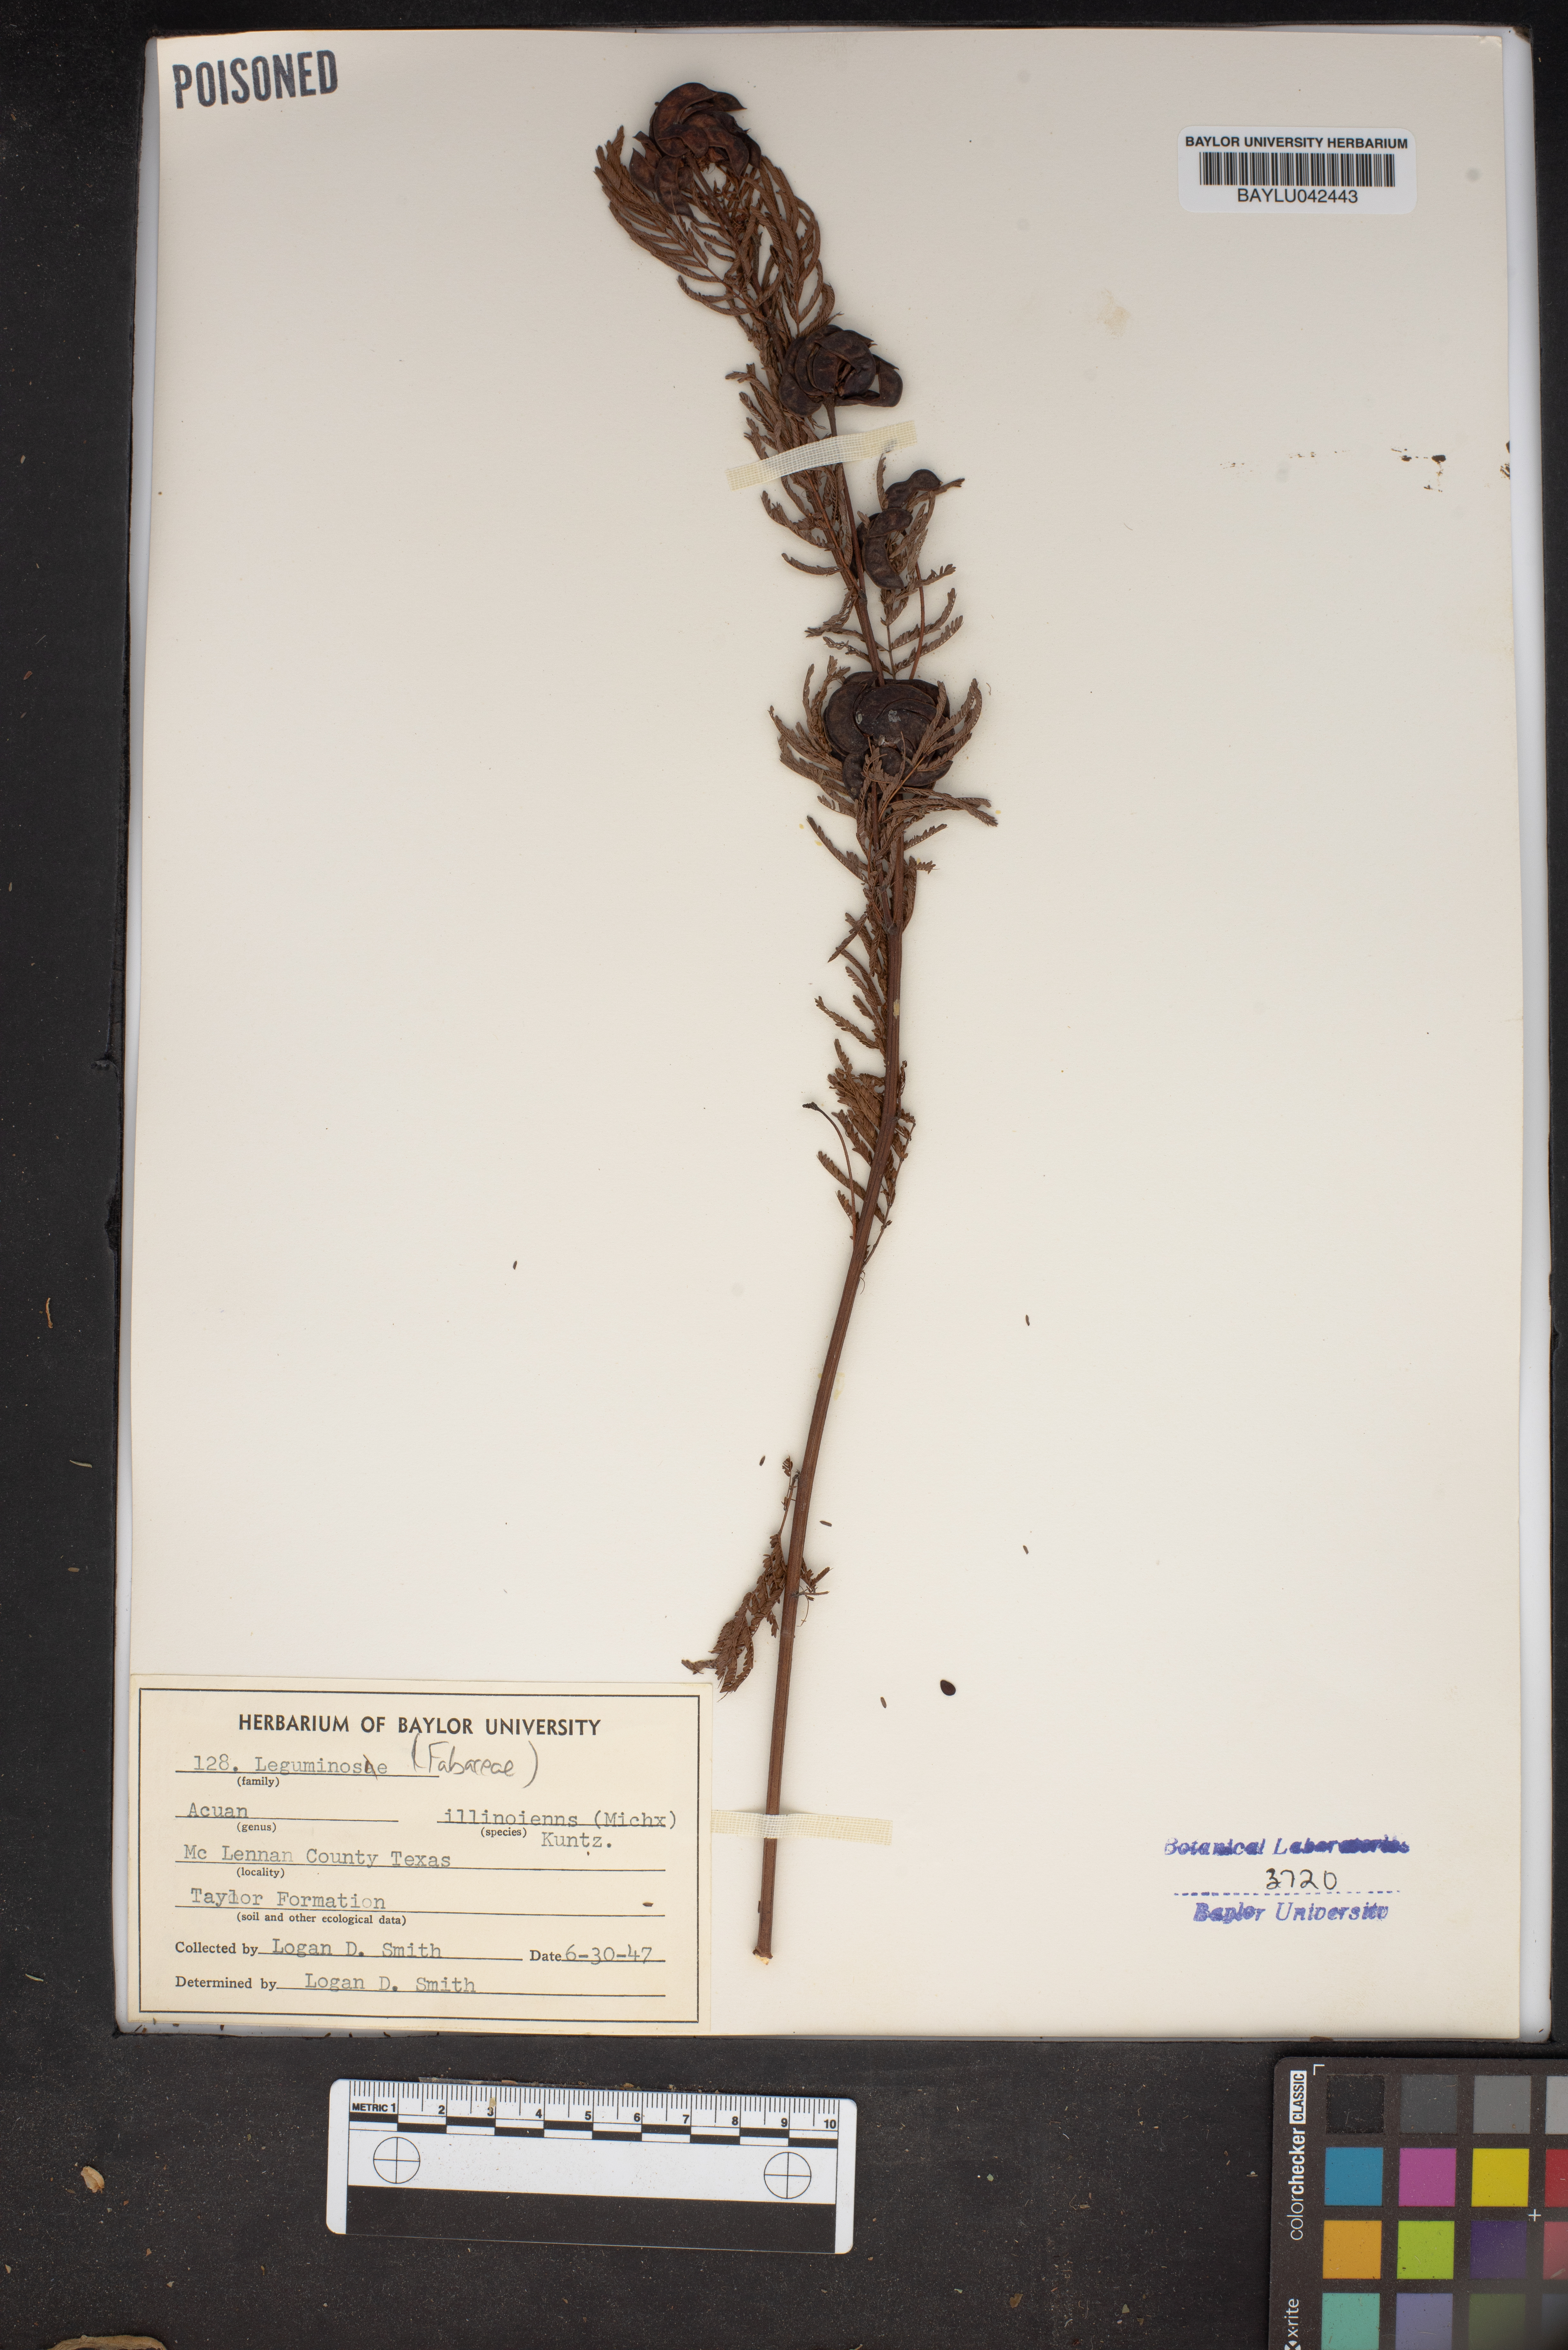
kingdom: Plantae
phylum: Tracheophyta
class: Magnoliopsida
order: Fabales
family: Fabaceae
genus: Desmanthus
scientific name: Desmanthus Acuan illinoensis
